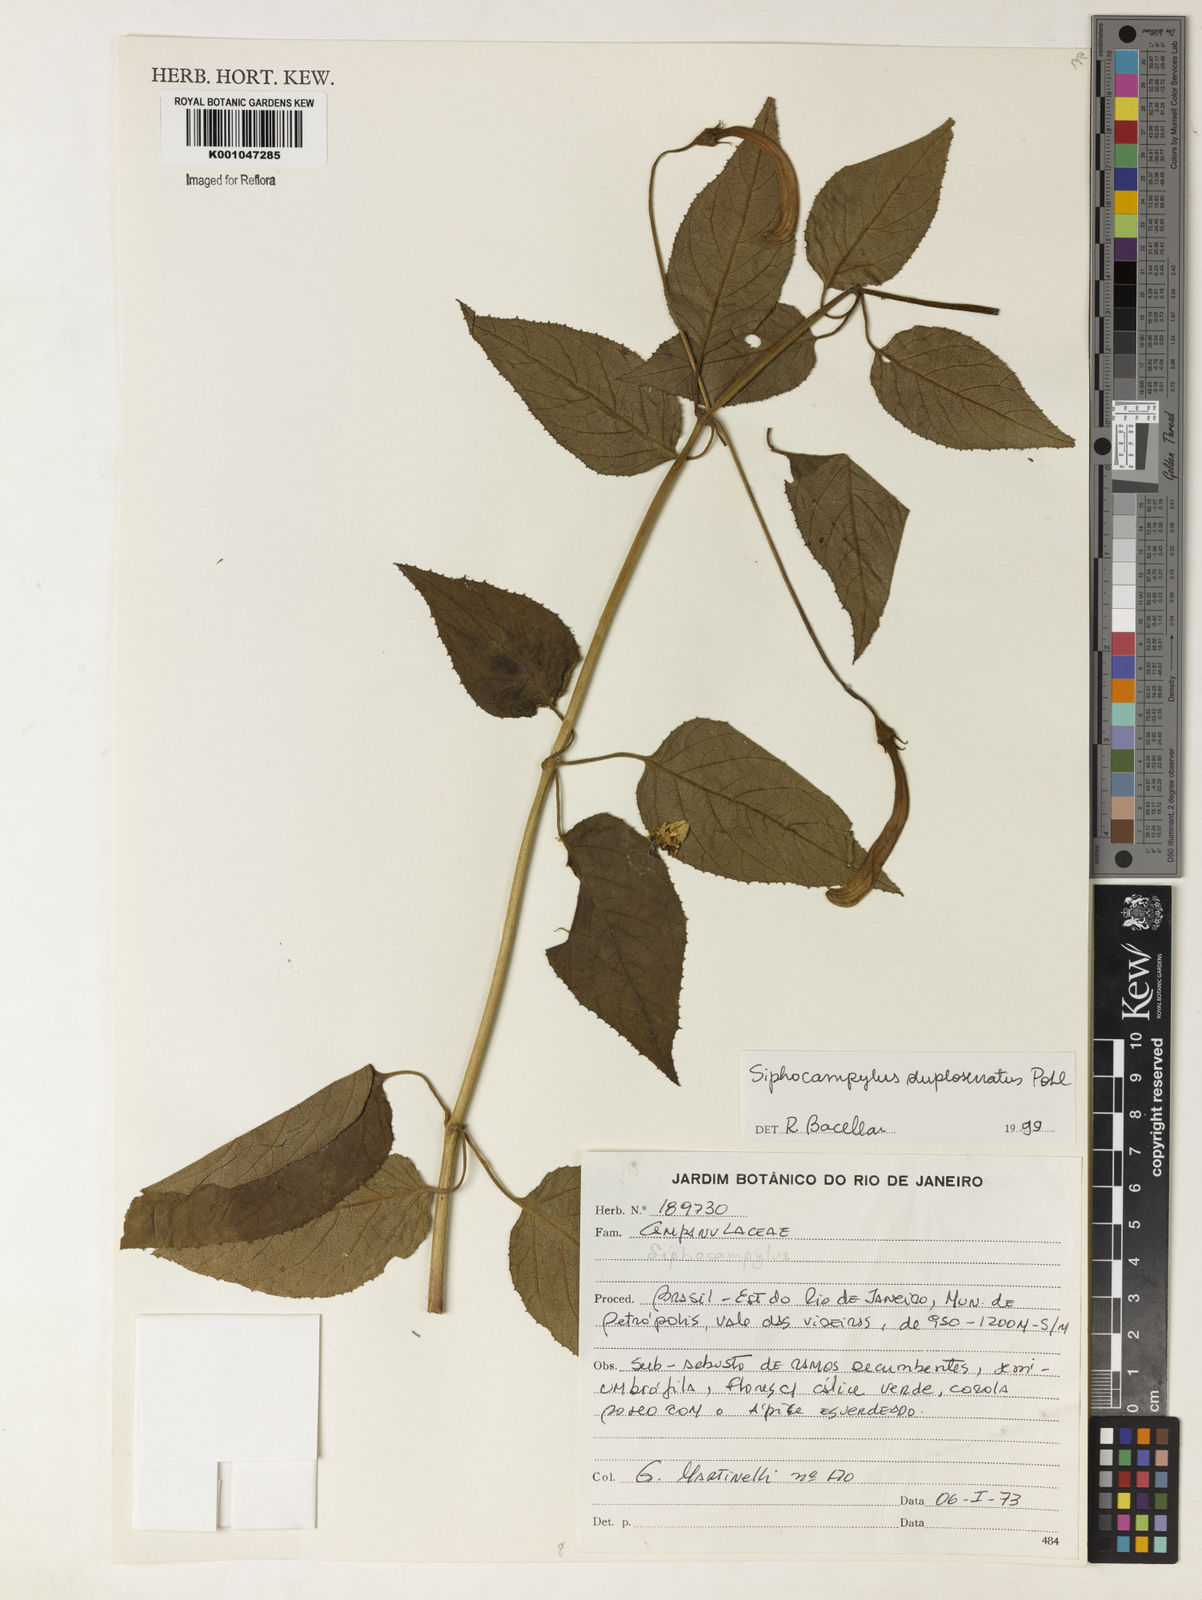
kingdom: Plantae
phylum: Tracheophyta
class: Magnoliopsida
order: Asterales
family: Campanulaceae
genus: Siphocampylus
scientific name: Siphocampylus duploserratus
